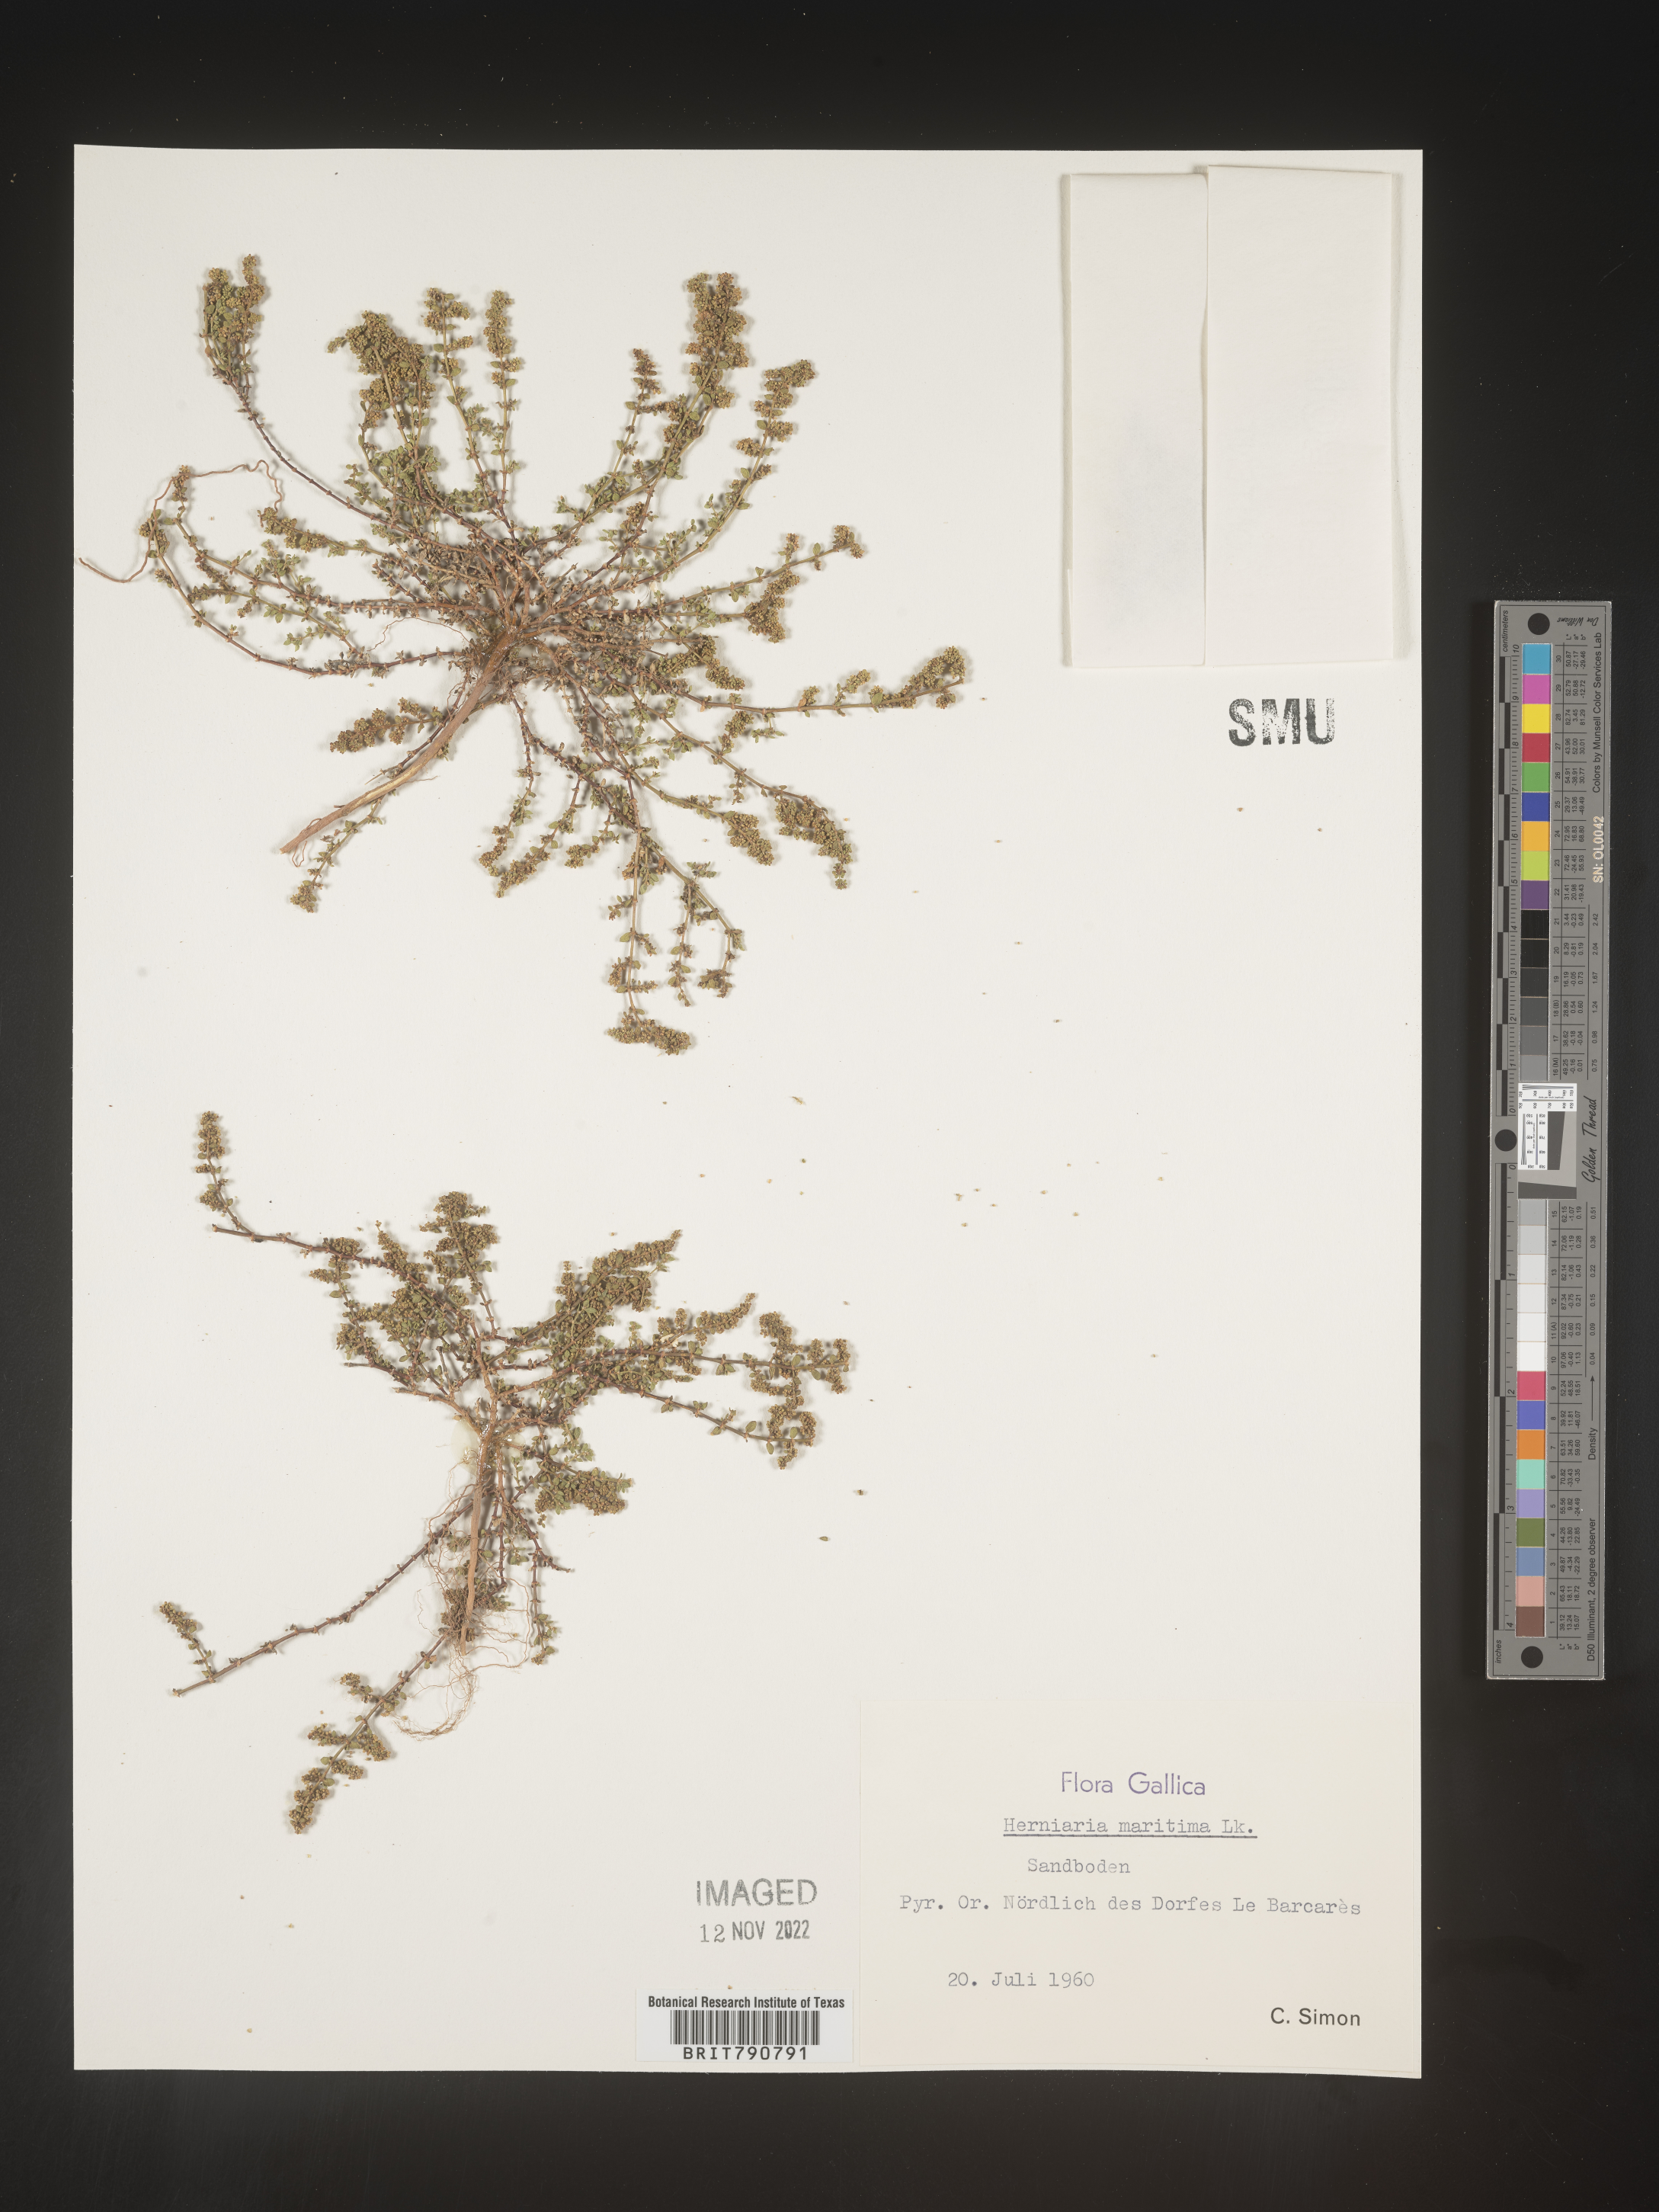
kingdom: Plantae
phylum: Tracheophyta
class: Magnoliopsida
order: Caryophyllales
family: Caryophyllaceae
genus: Herniaria
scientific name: Herniaria
